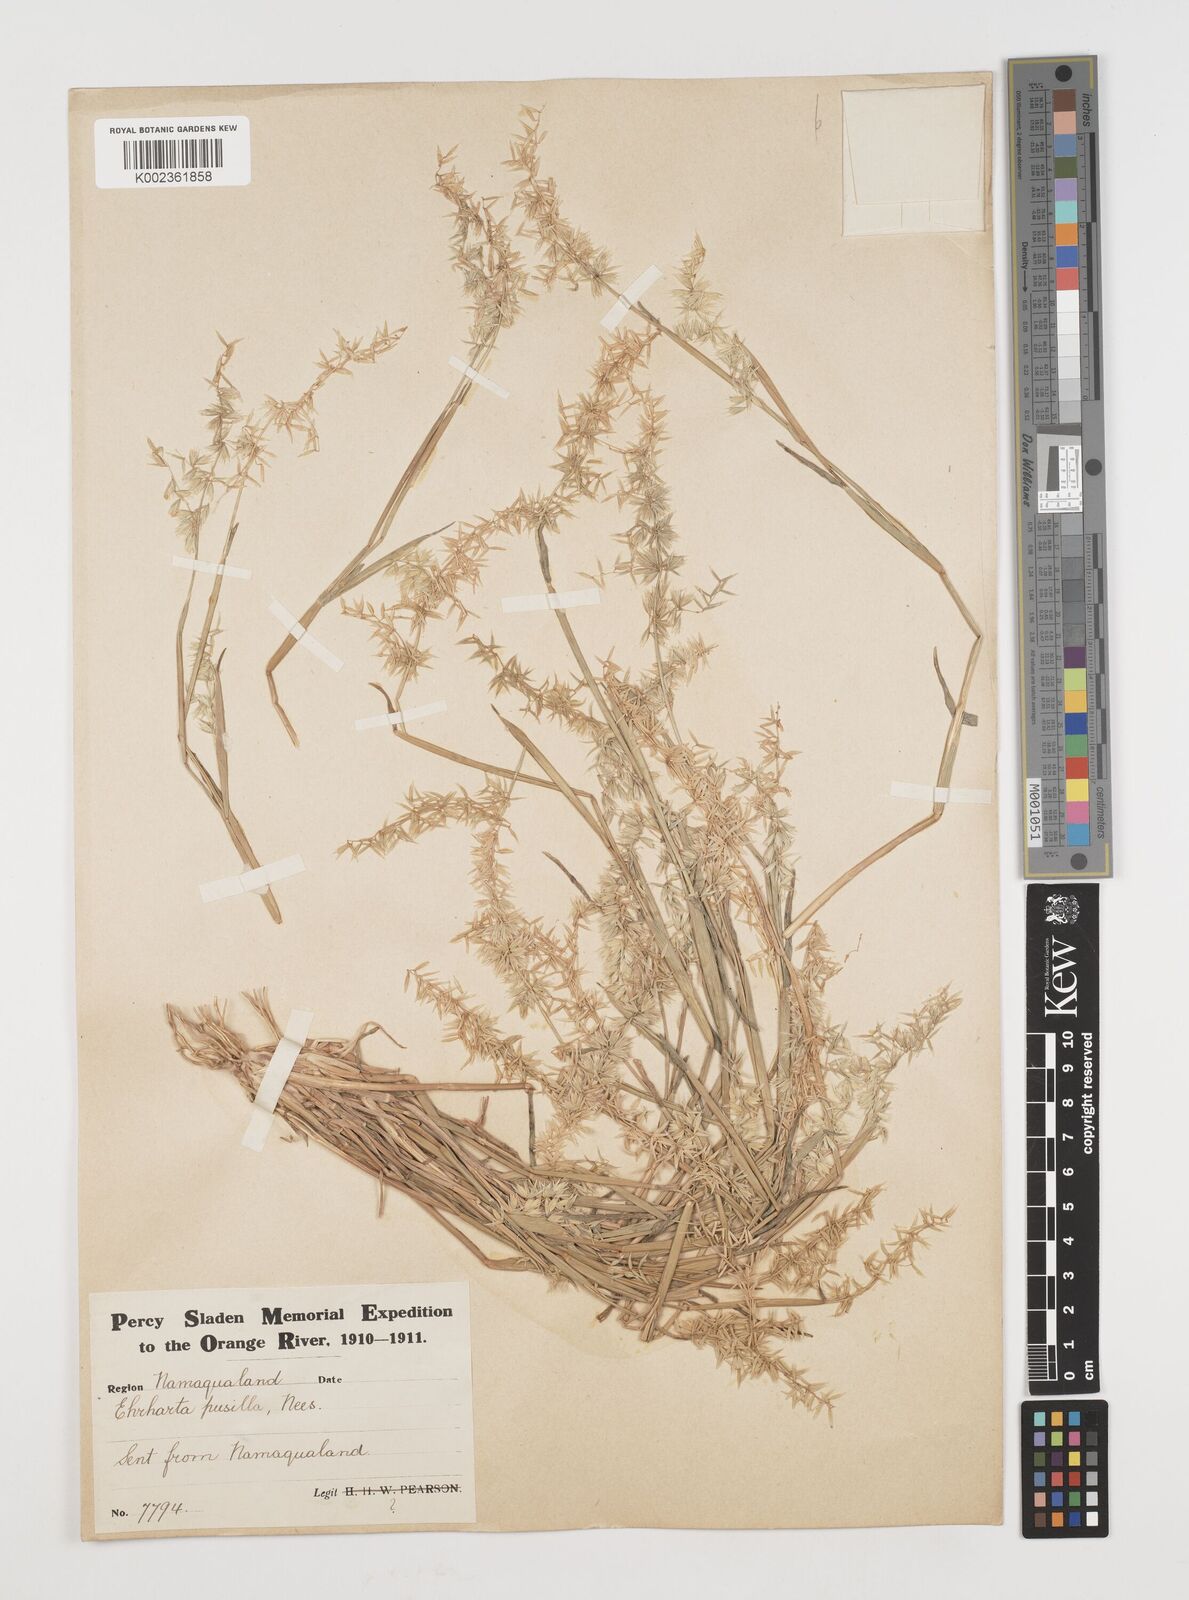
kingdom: Plantae
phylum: Tracheophyta
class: Liliopsida
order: Poales
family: Poaceae
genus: Ehrharta
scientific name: Ehrharta pusilla
